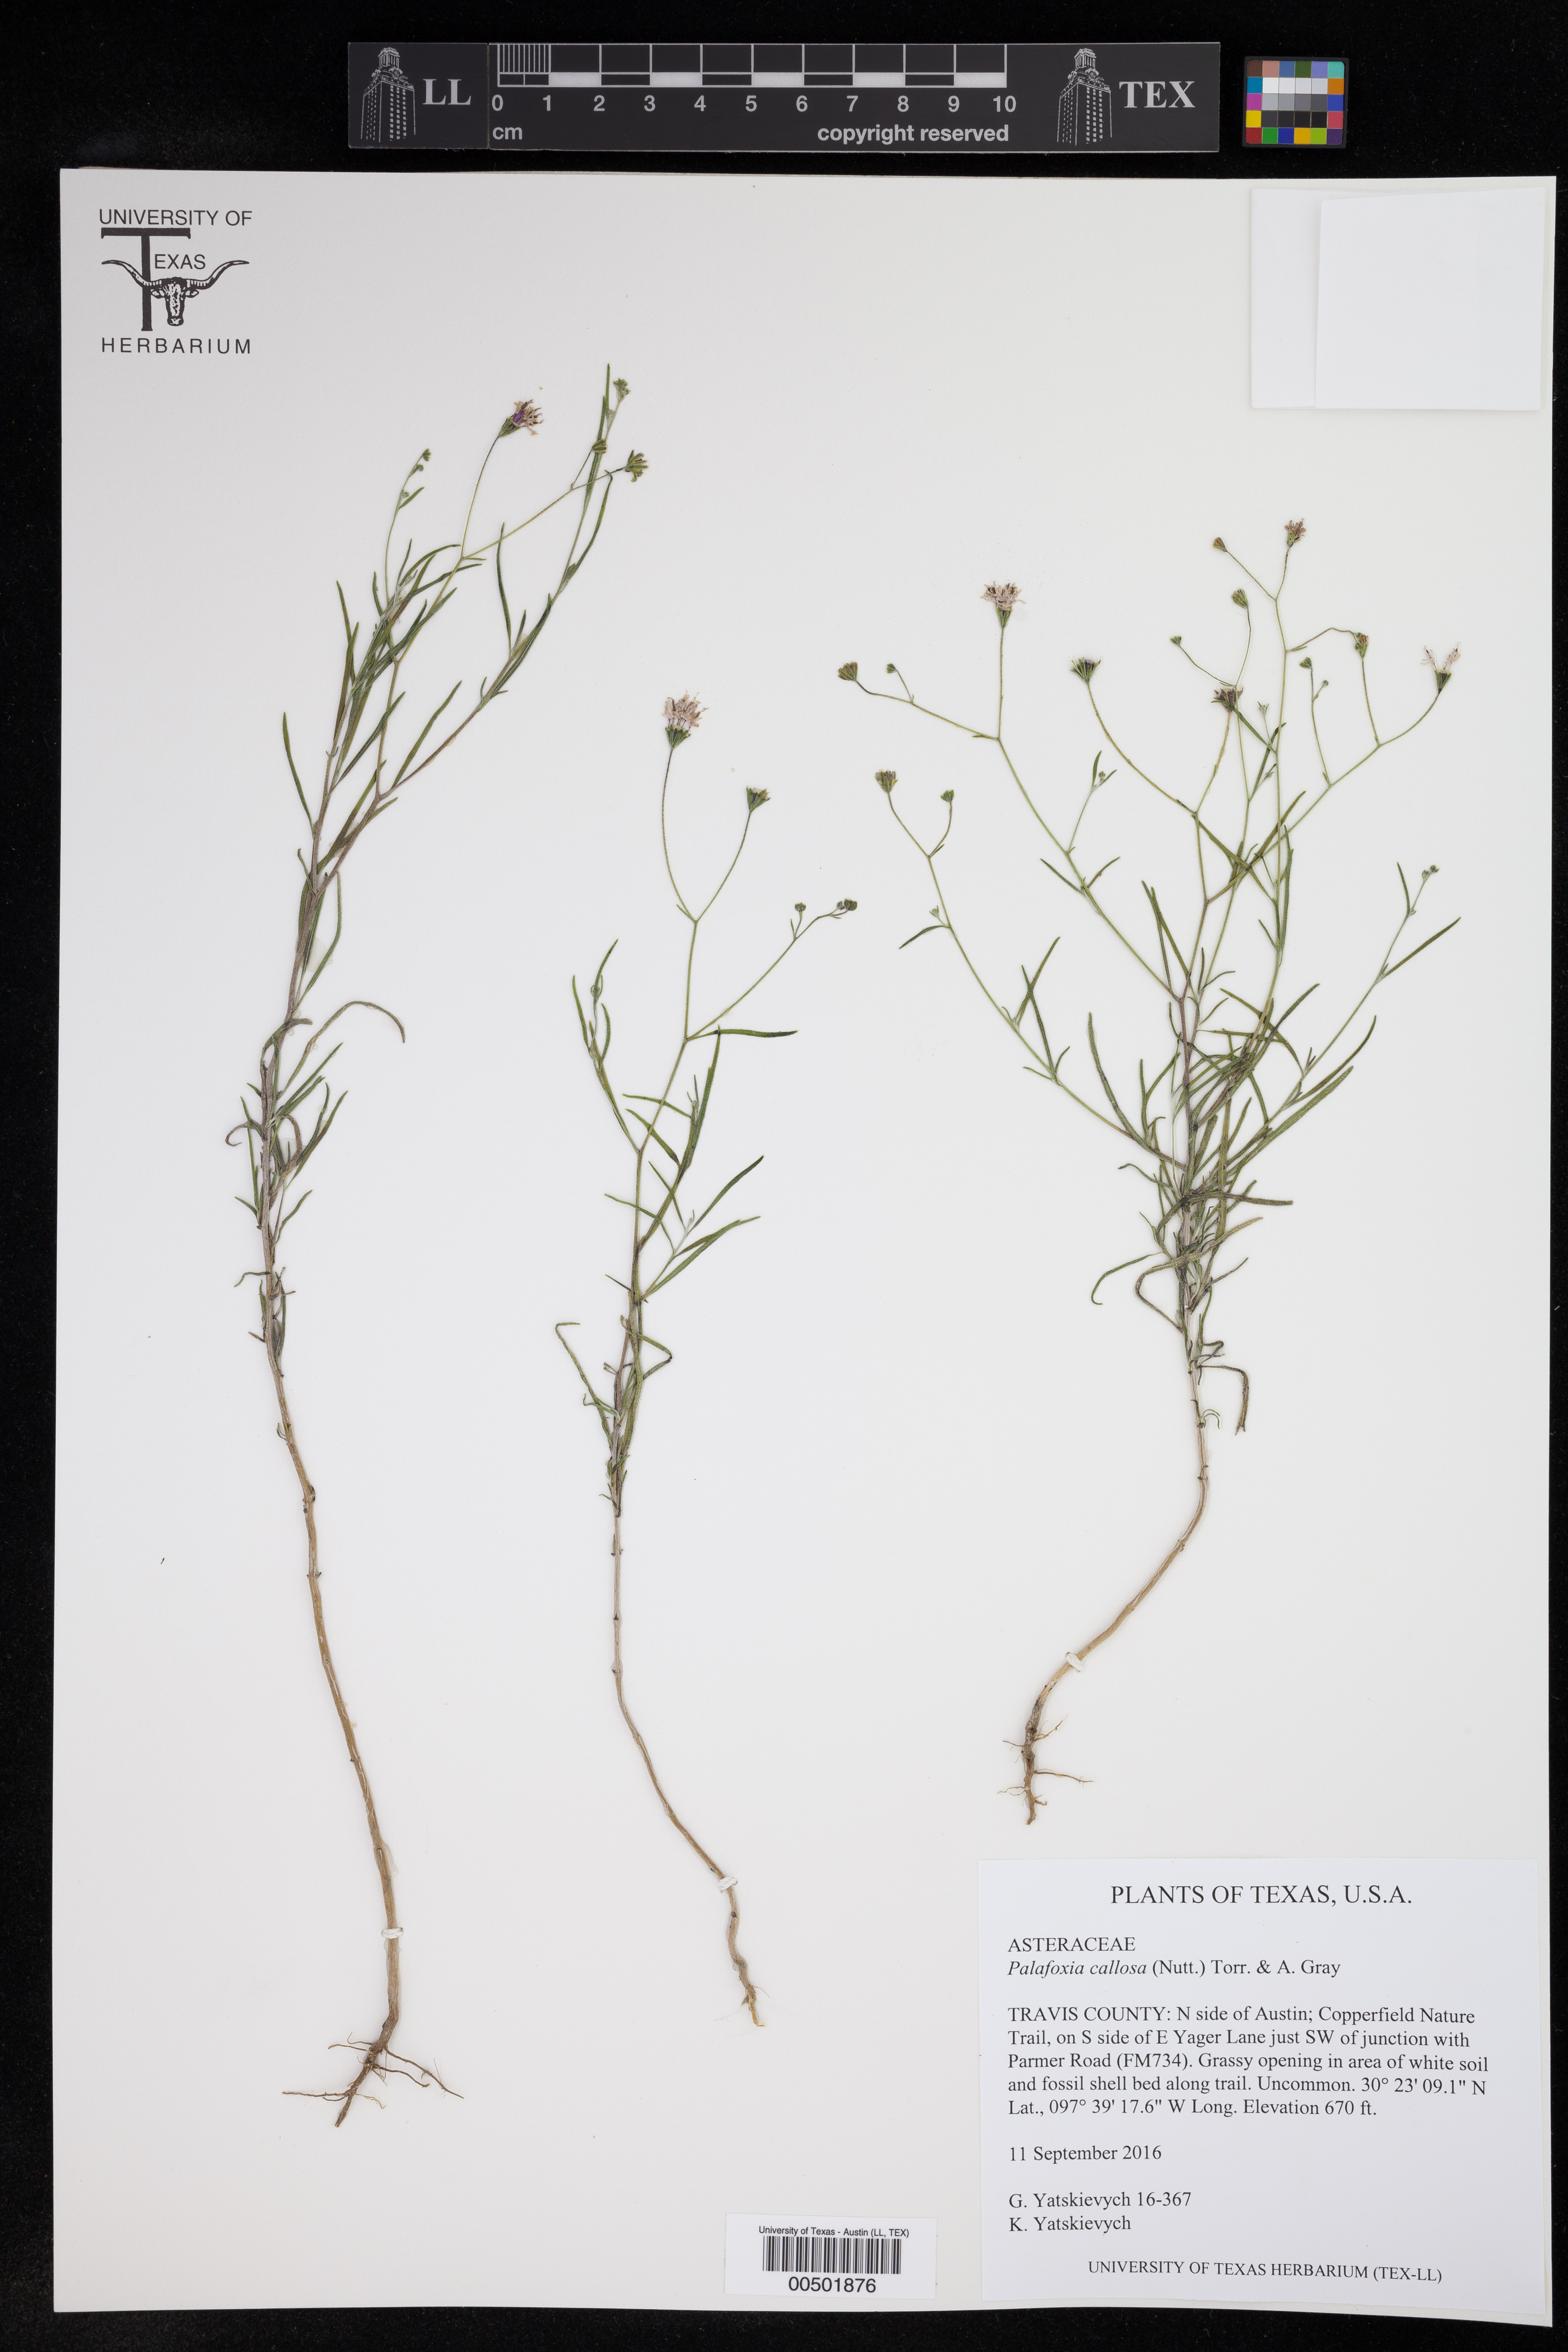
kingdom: Plantae
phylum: Tracheophyta
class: Magnoliopsida
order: Asterales
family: Asteraceae
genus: Palafoxia
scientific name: Palafoxia callosa
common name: Small palafox
